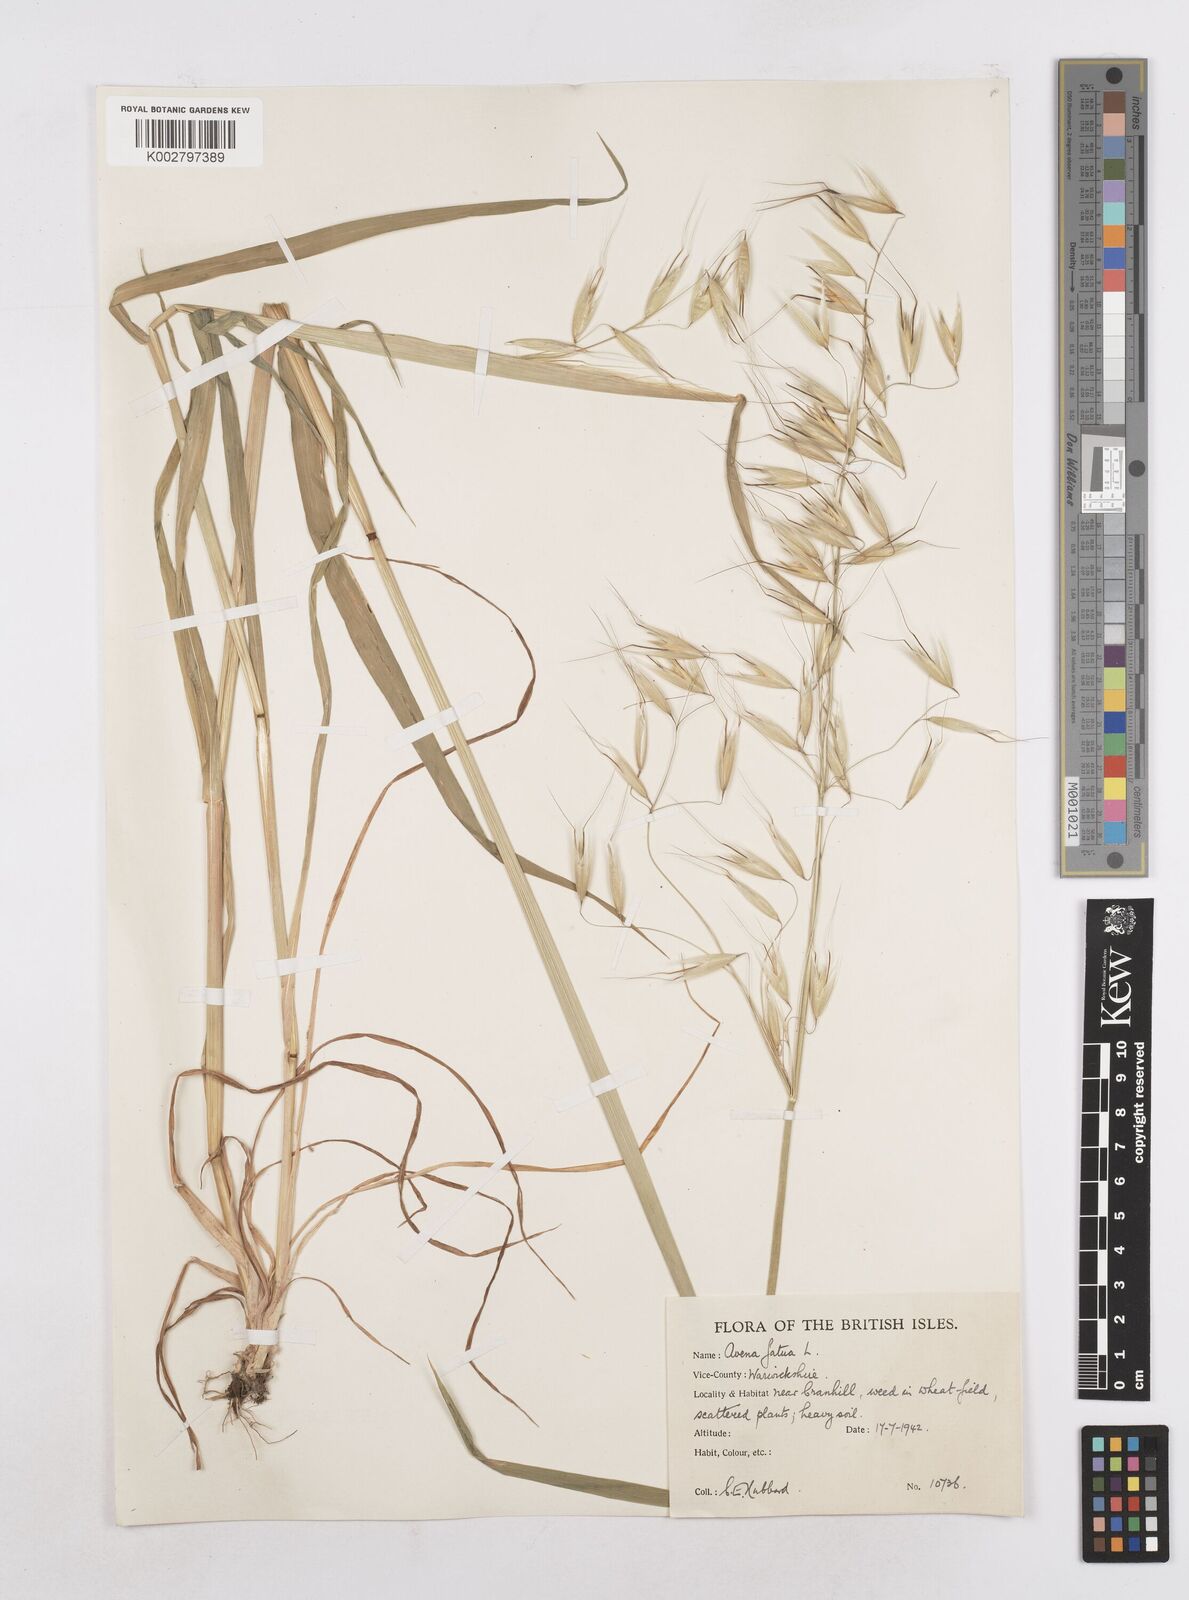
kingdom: Plantae
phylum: Tracheophyta
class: Liliopsida
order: Poales
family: Poaceae
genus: Avena
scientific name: Avena fatua
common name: Wild oat
